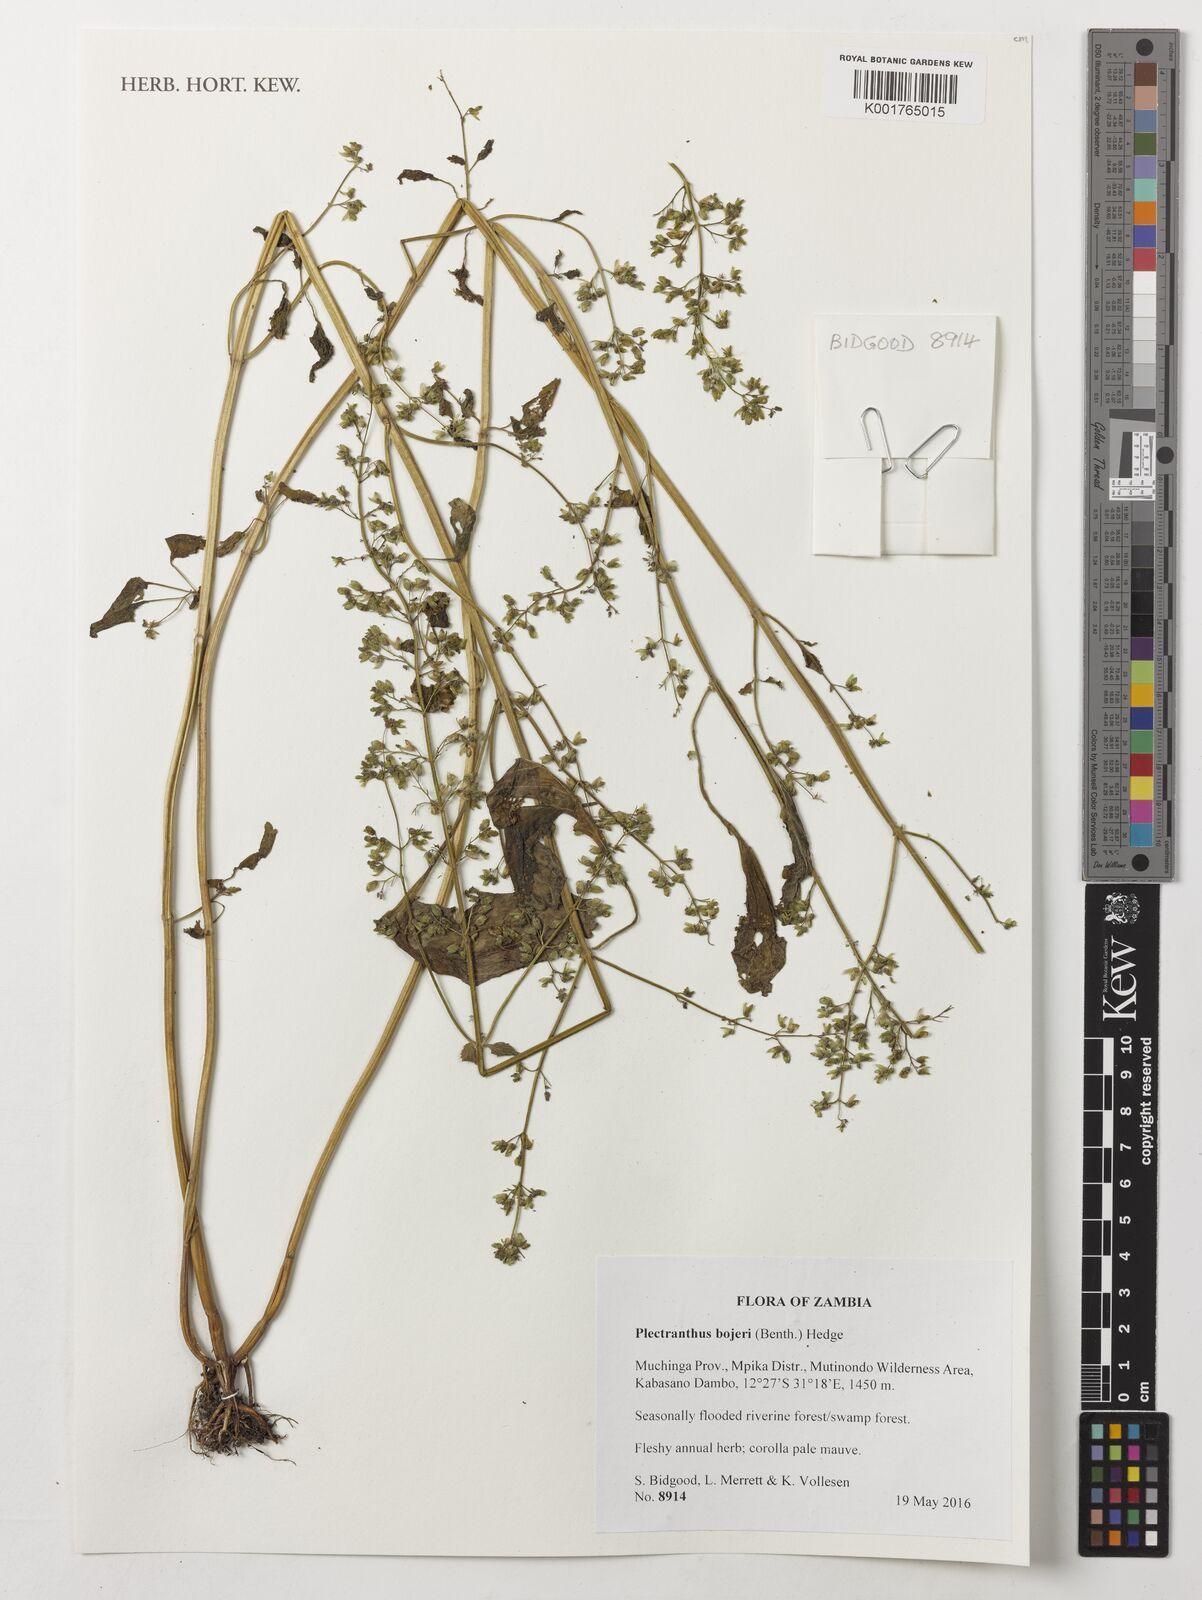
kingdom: Plantae
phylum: Tracheophyta
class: Magnoliopsida
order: Lamiales
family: Lamiaceae
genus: Coleus
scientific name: Coleus bojeri
